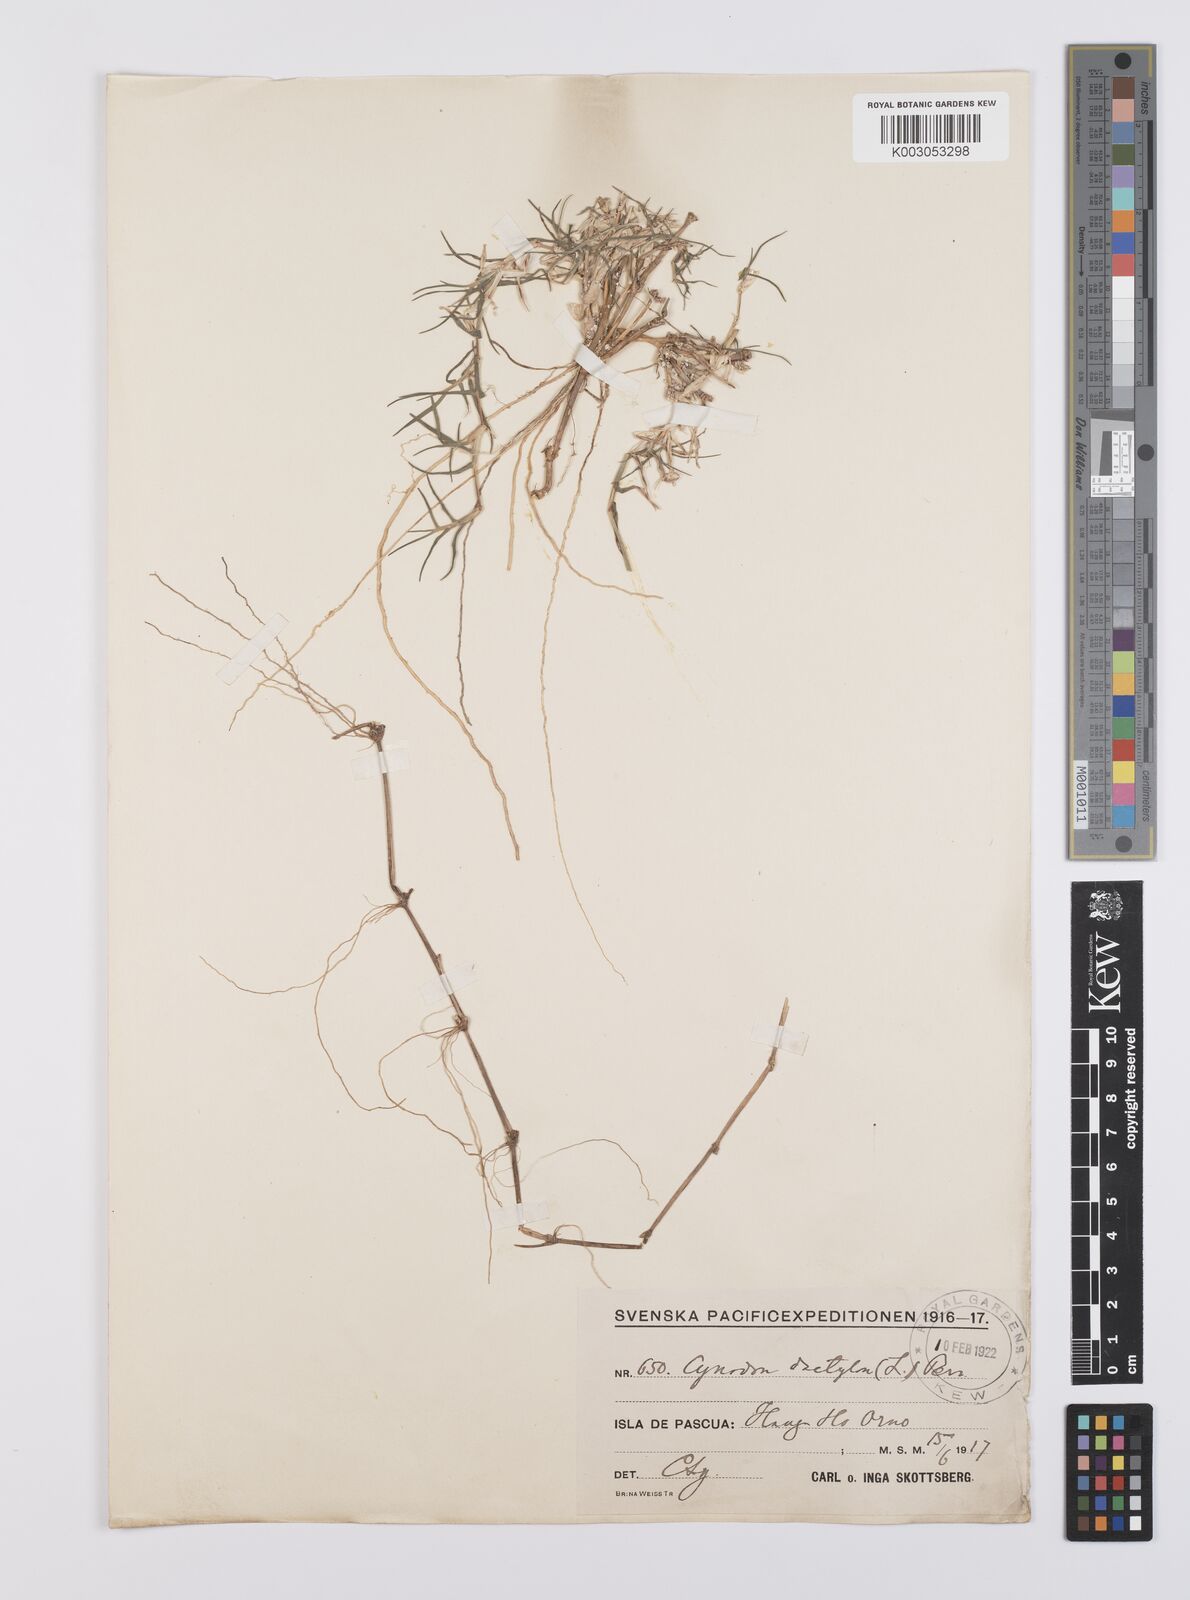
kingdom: Plantae
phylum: Tracheophyta
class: Liliopsida
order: Poales
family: Poaceae
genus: Cynodon
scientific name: Cynodon dactylon
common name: Bermuda grass
